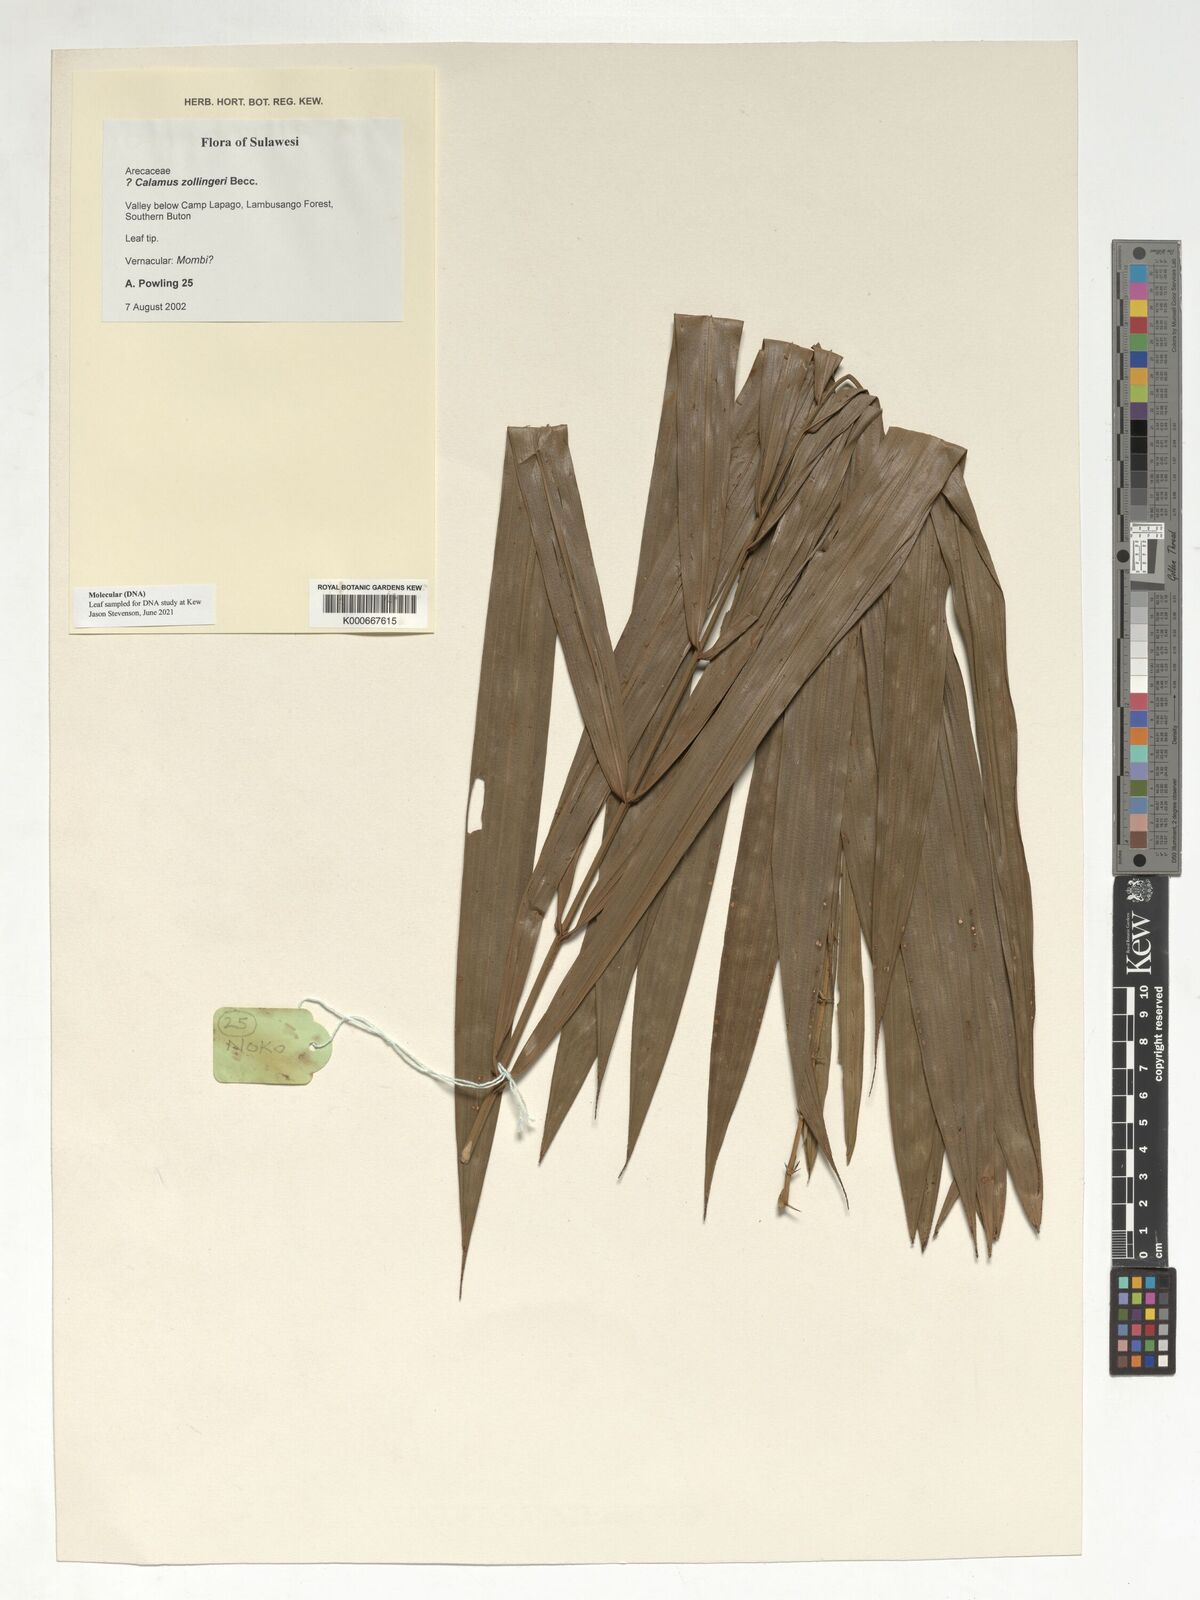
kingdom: Plantae
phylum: Tracheophyta
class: Liliopsida
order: Arecales
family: Arecaceae
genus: Calamus
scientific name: Calamus zollingeri
